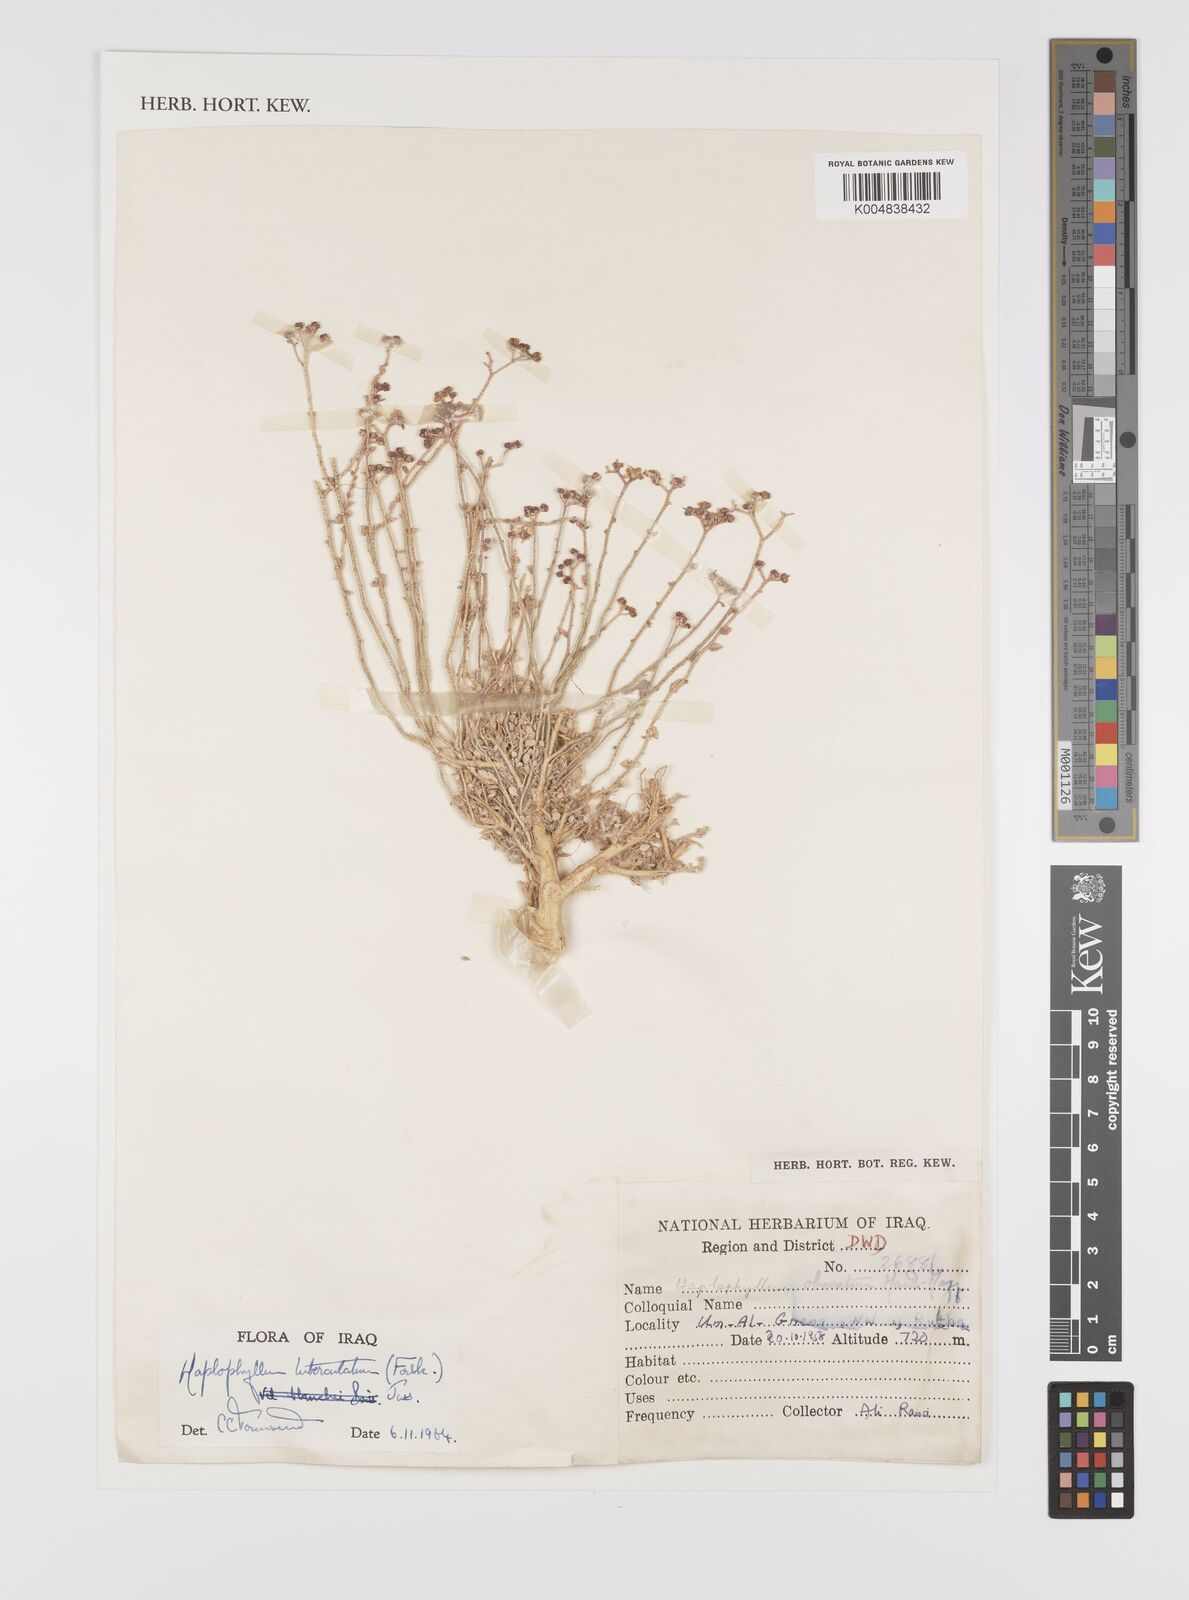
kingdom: Plantae
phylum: Tracheophyta
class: Magnoliopsida
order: Sapindales
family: Rutaceae
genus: Haplophyllum
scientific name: Haplophyllum tuberculatum
